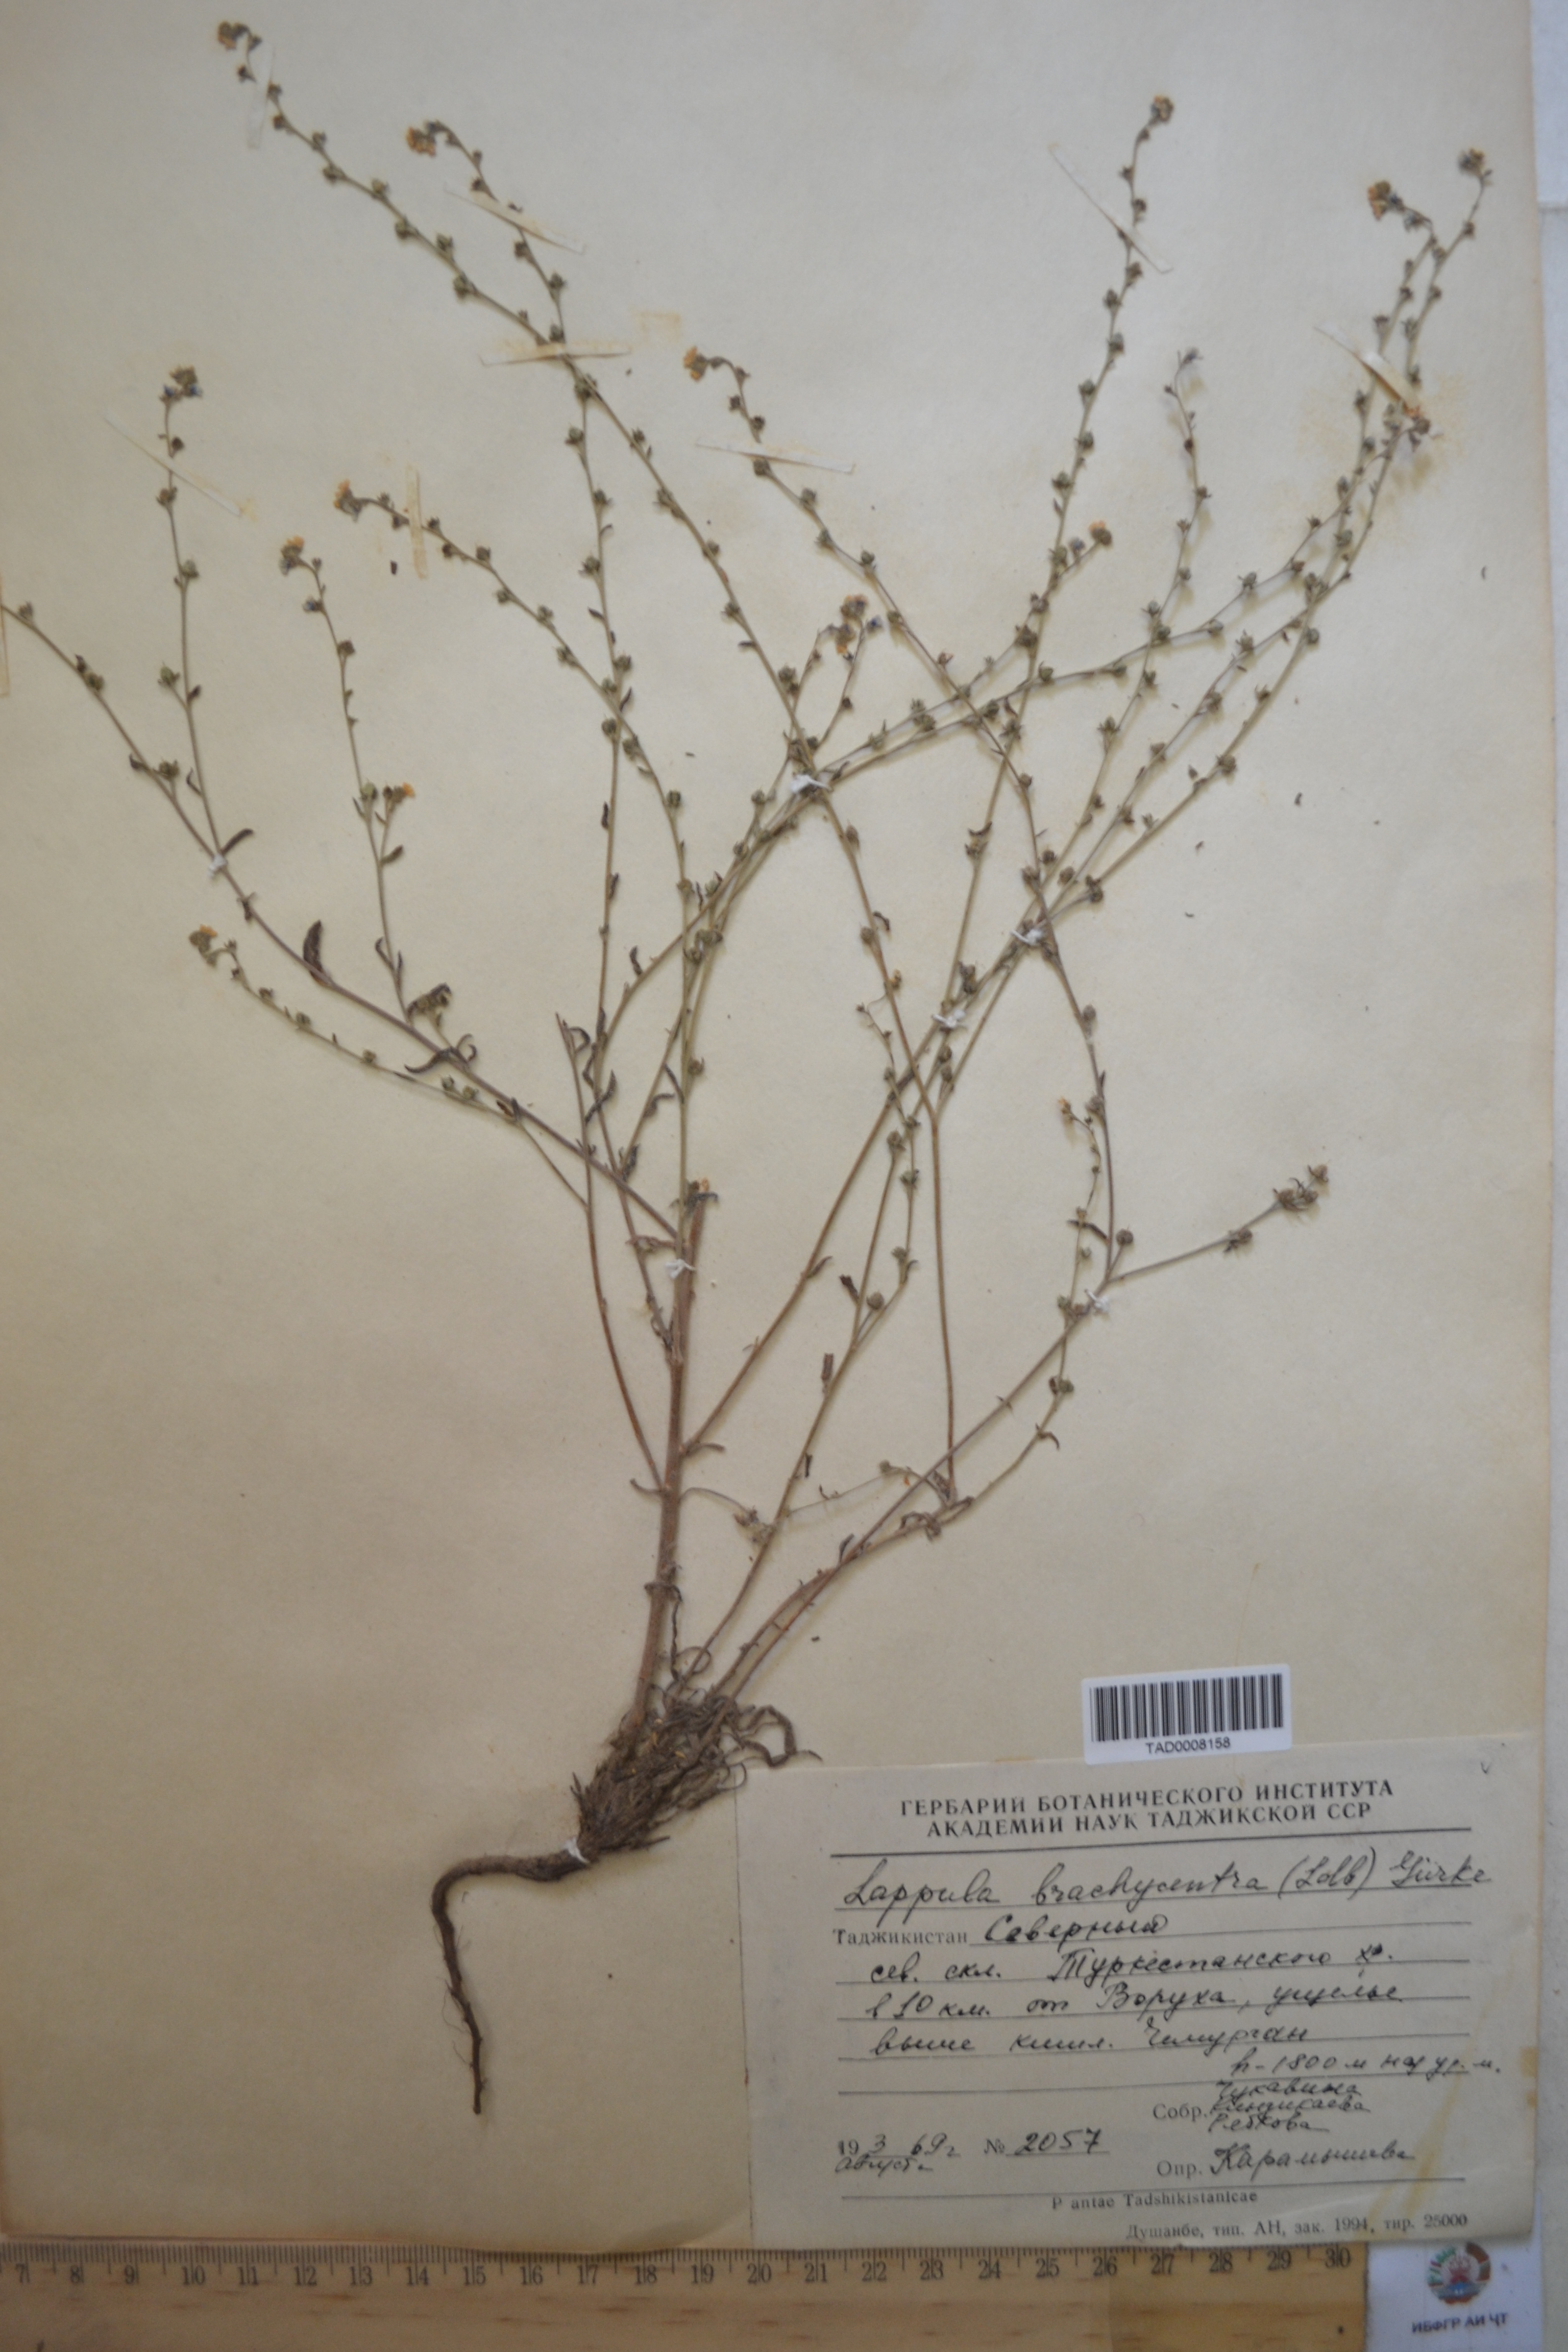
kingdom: Plantae
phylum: Tracheophyta
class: Magnoliopsida
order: Boraginales
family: Boraginaceae
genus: Lappula
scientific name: Lappula brachycentra
